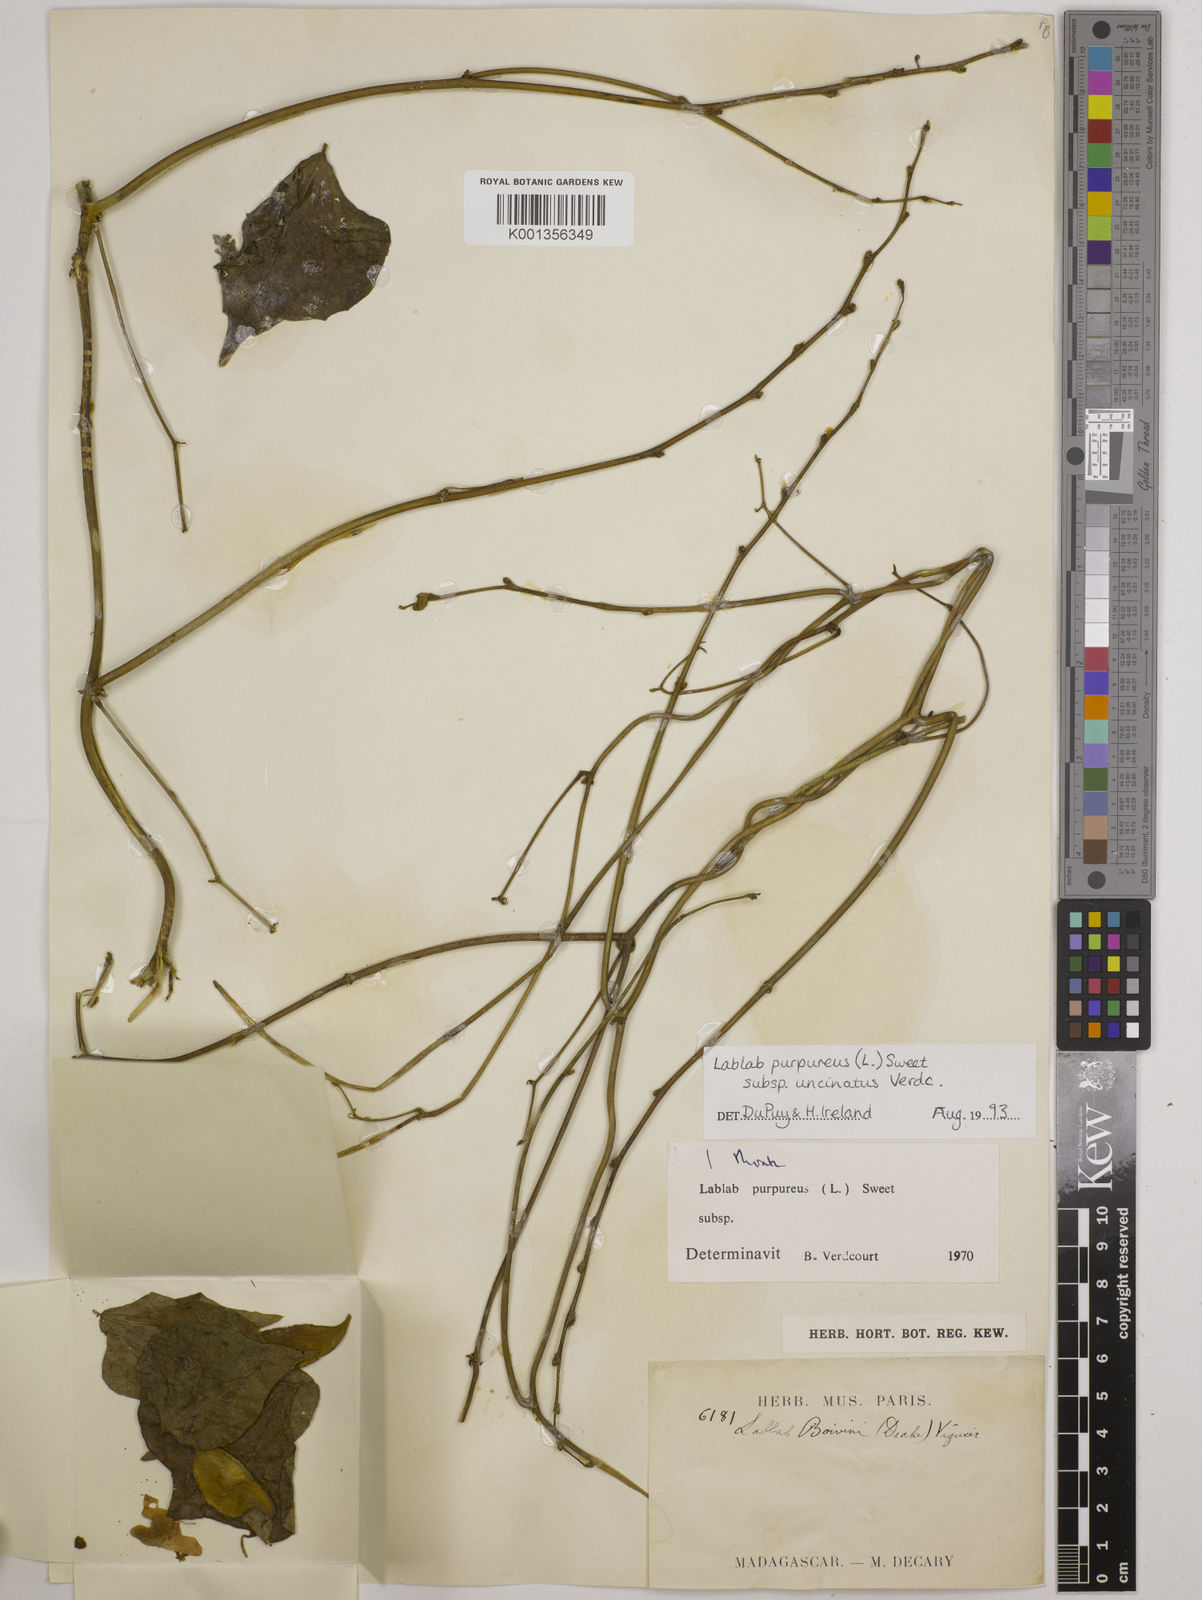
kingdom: Plantae
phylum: Tracheophyta
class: Magnoliopsida
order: Fabales
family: Fabaceae
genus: Lablab
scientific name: Lablab purpureus
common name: Lablab-bean
